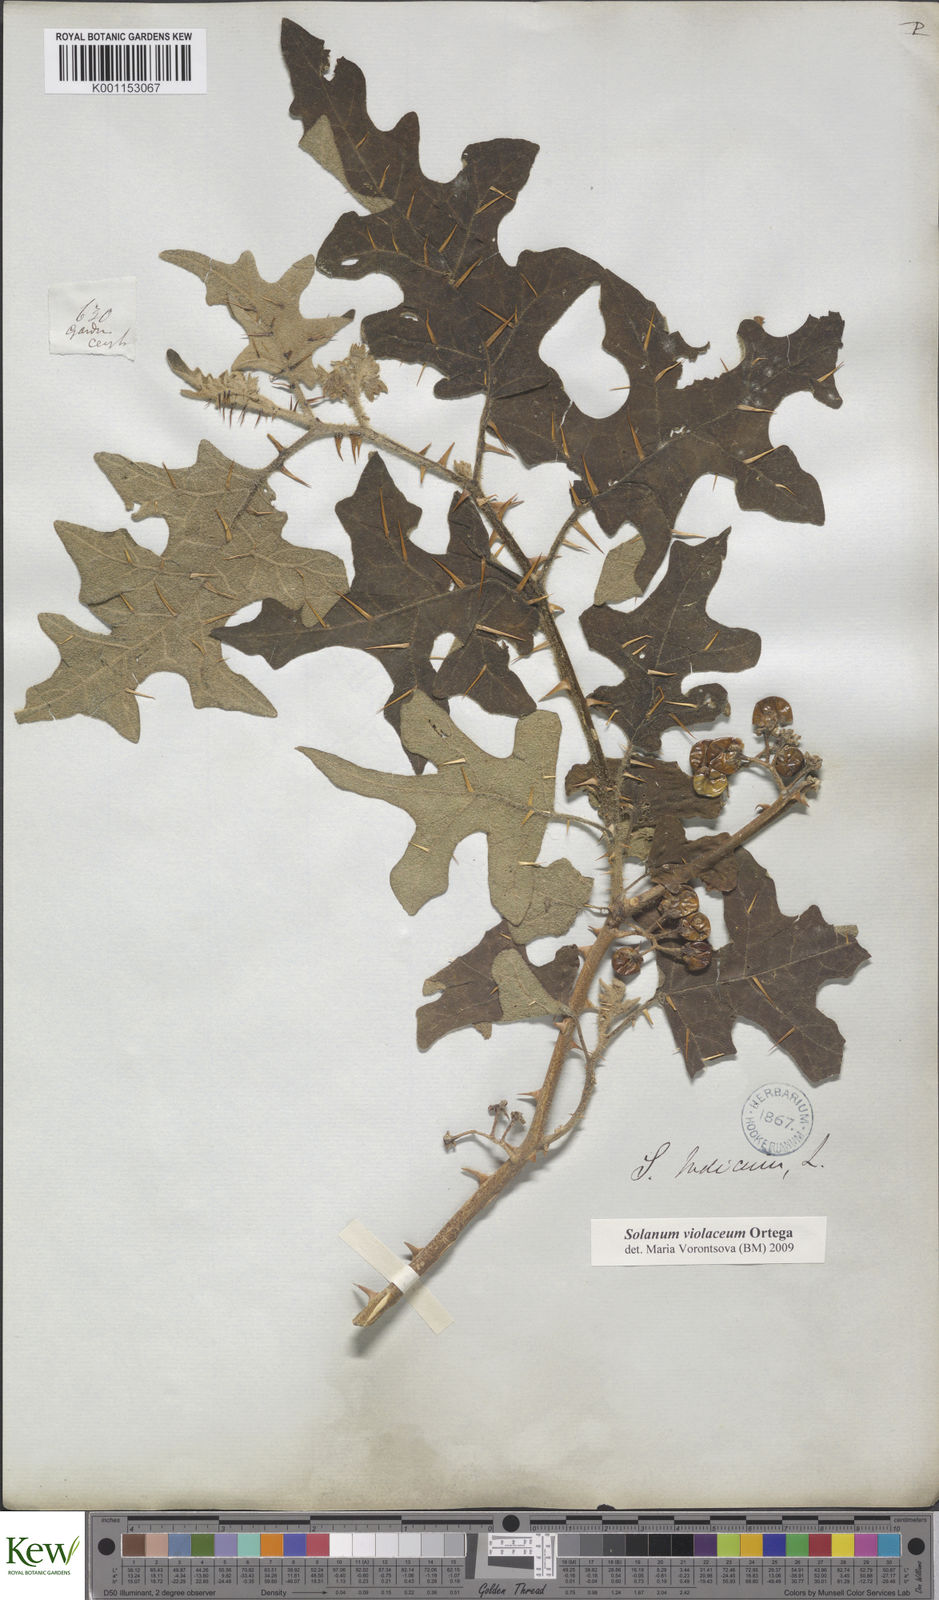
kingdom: Plantae
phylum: Tracheophyta
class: Magnoliopsida
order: Solanales
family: Solanaceae
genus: Solanum
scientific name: Solanum violaceum
